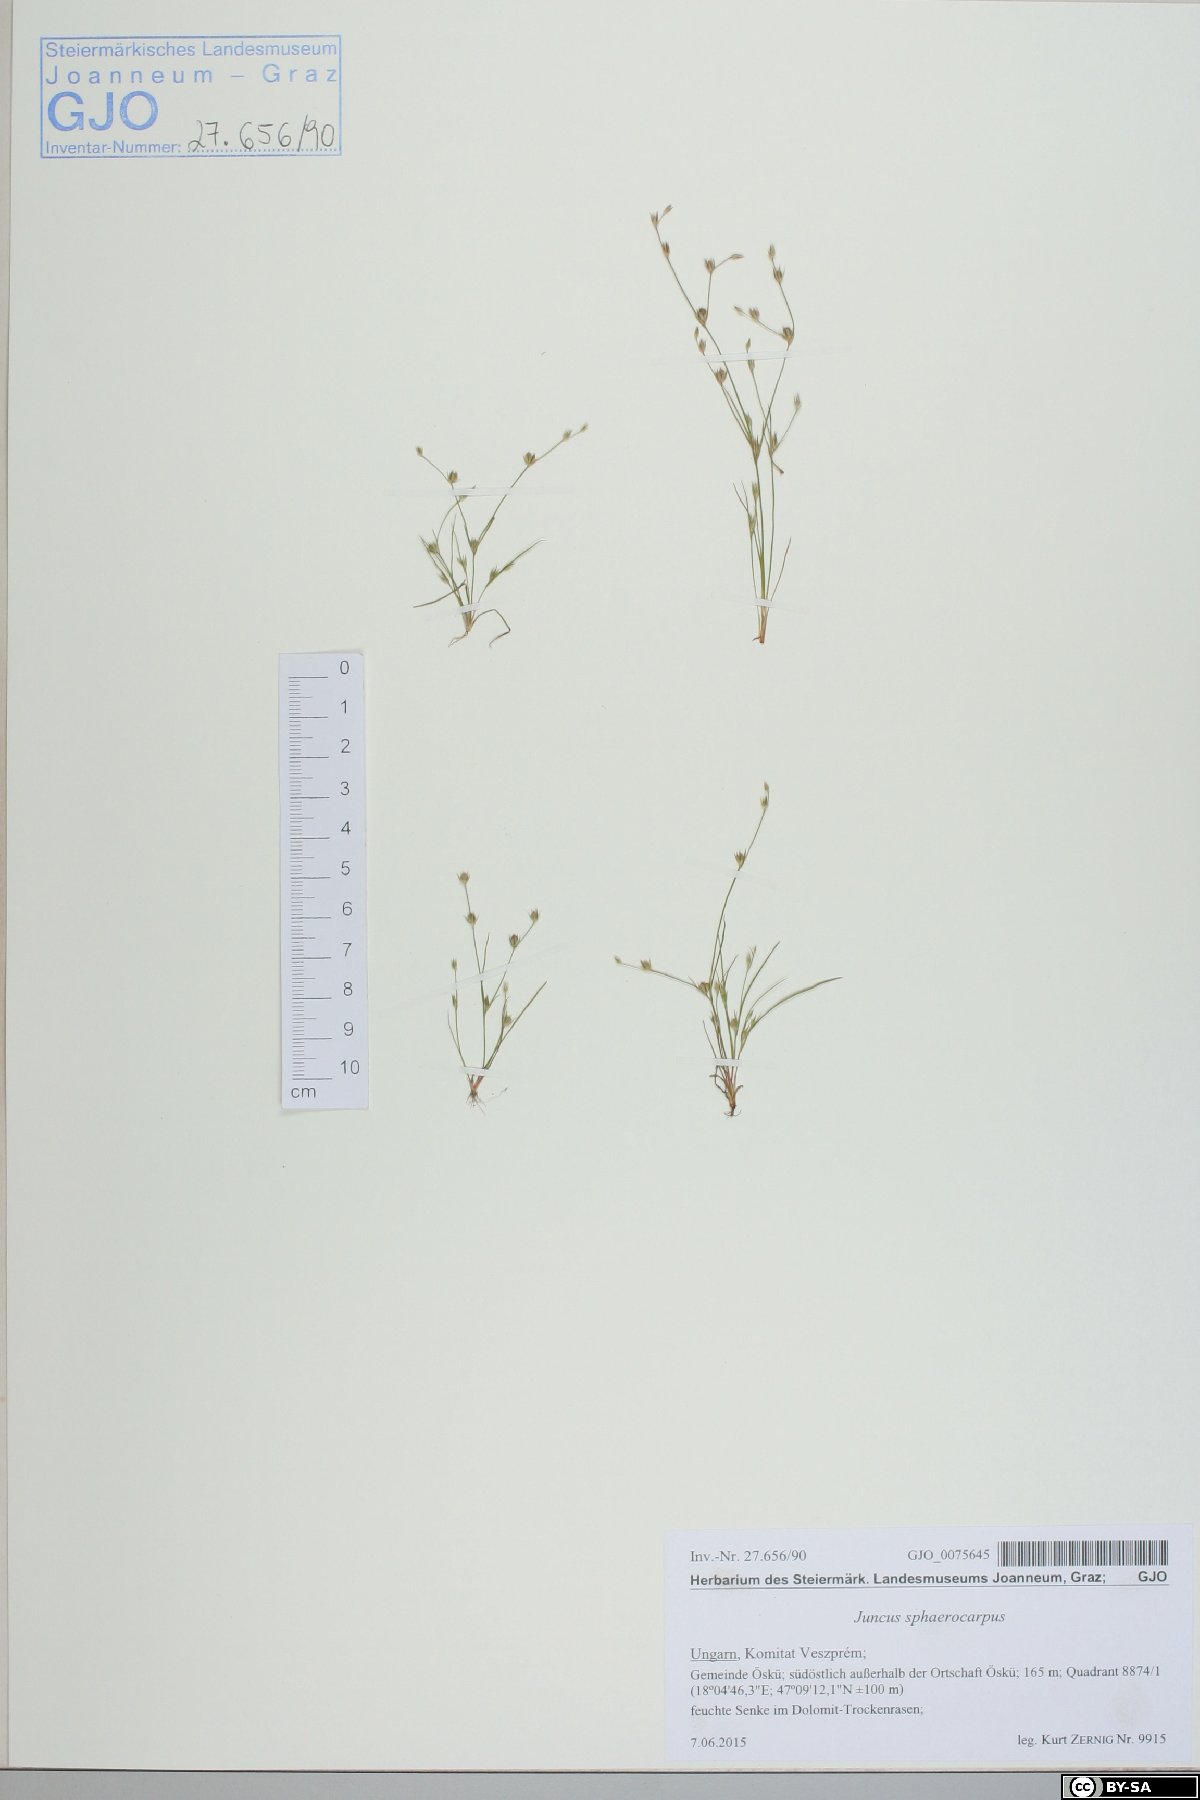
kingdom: Plantae
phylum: Tracheophyta
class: Liliopsida
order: Poales
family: Juncaceae
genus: Juncus
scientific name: Juncus sphaerocarpus
